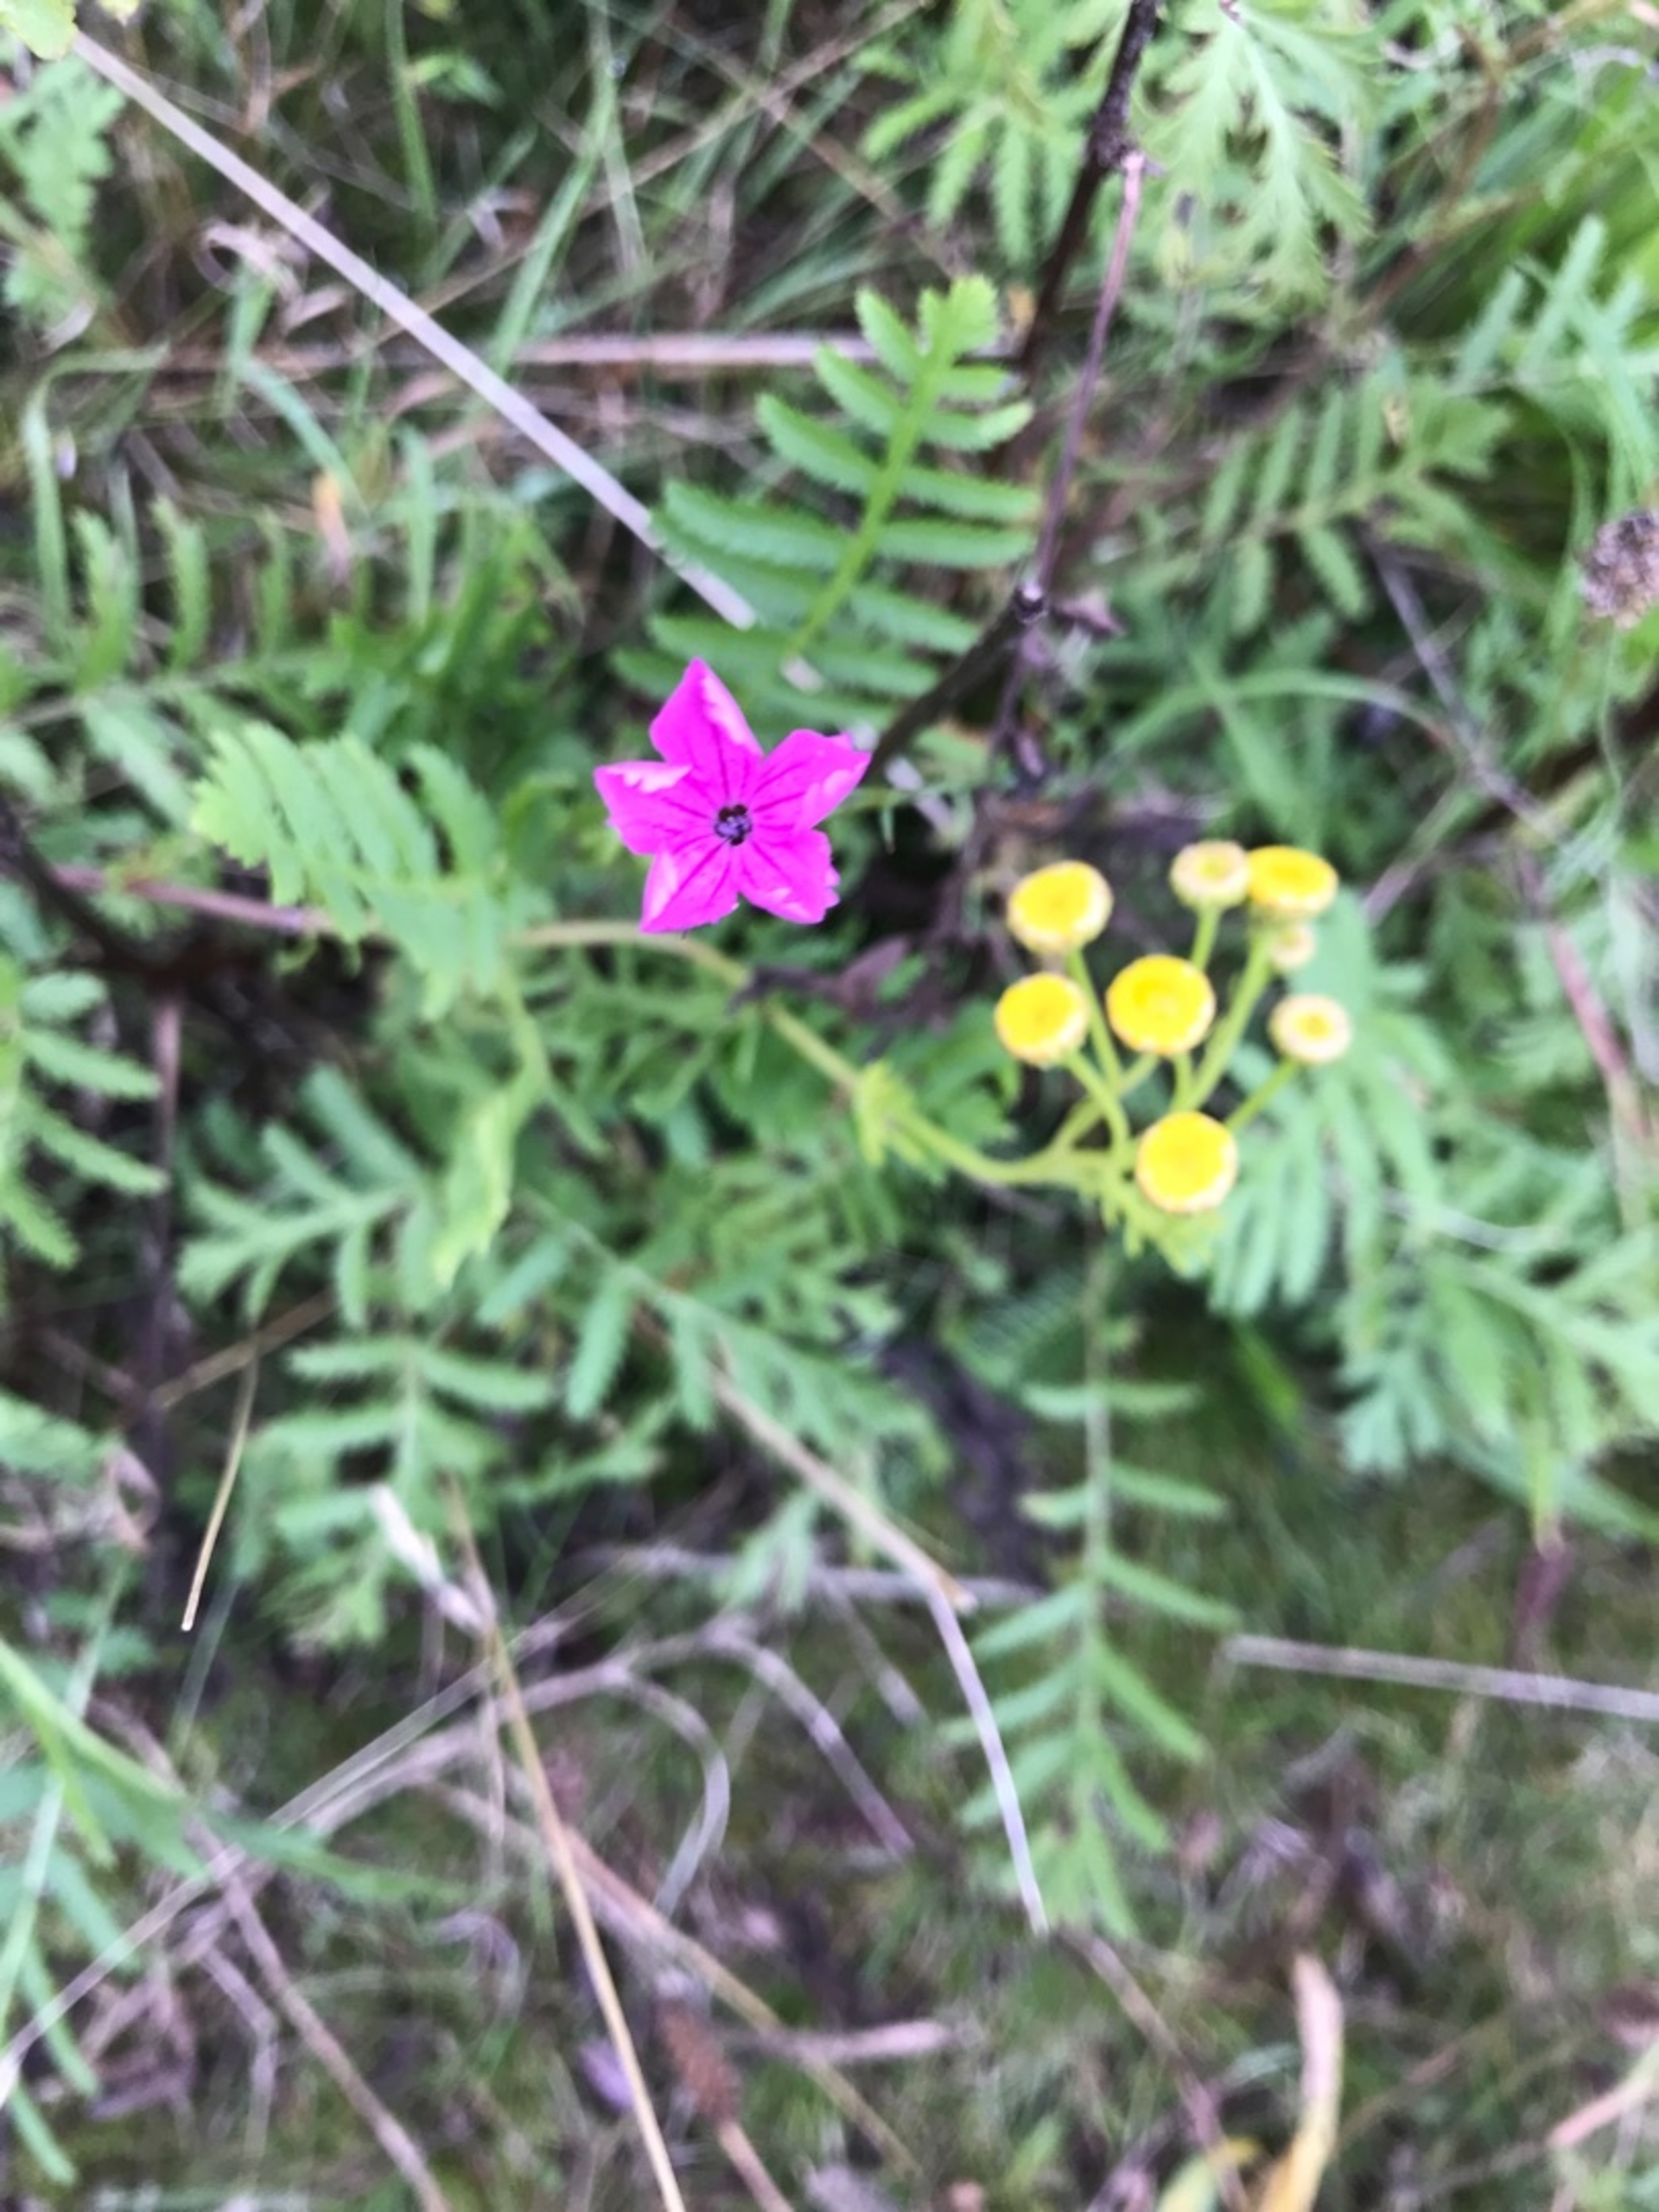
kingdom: Plantae
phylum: Tracheophyta
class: Magnoliopsida
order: Caryophyllales
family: Caryophyllaceae
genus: Dianthus
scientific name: Dianthus carthusianorum
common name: Karteuser-nellike
